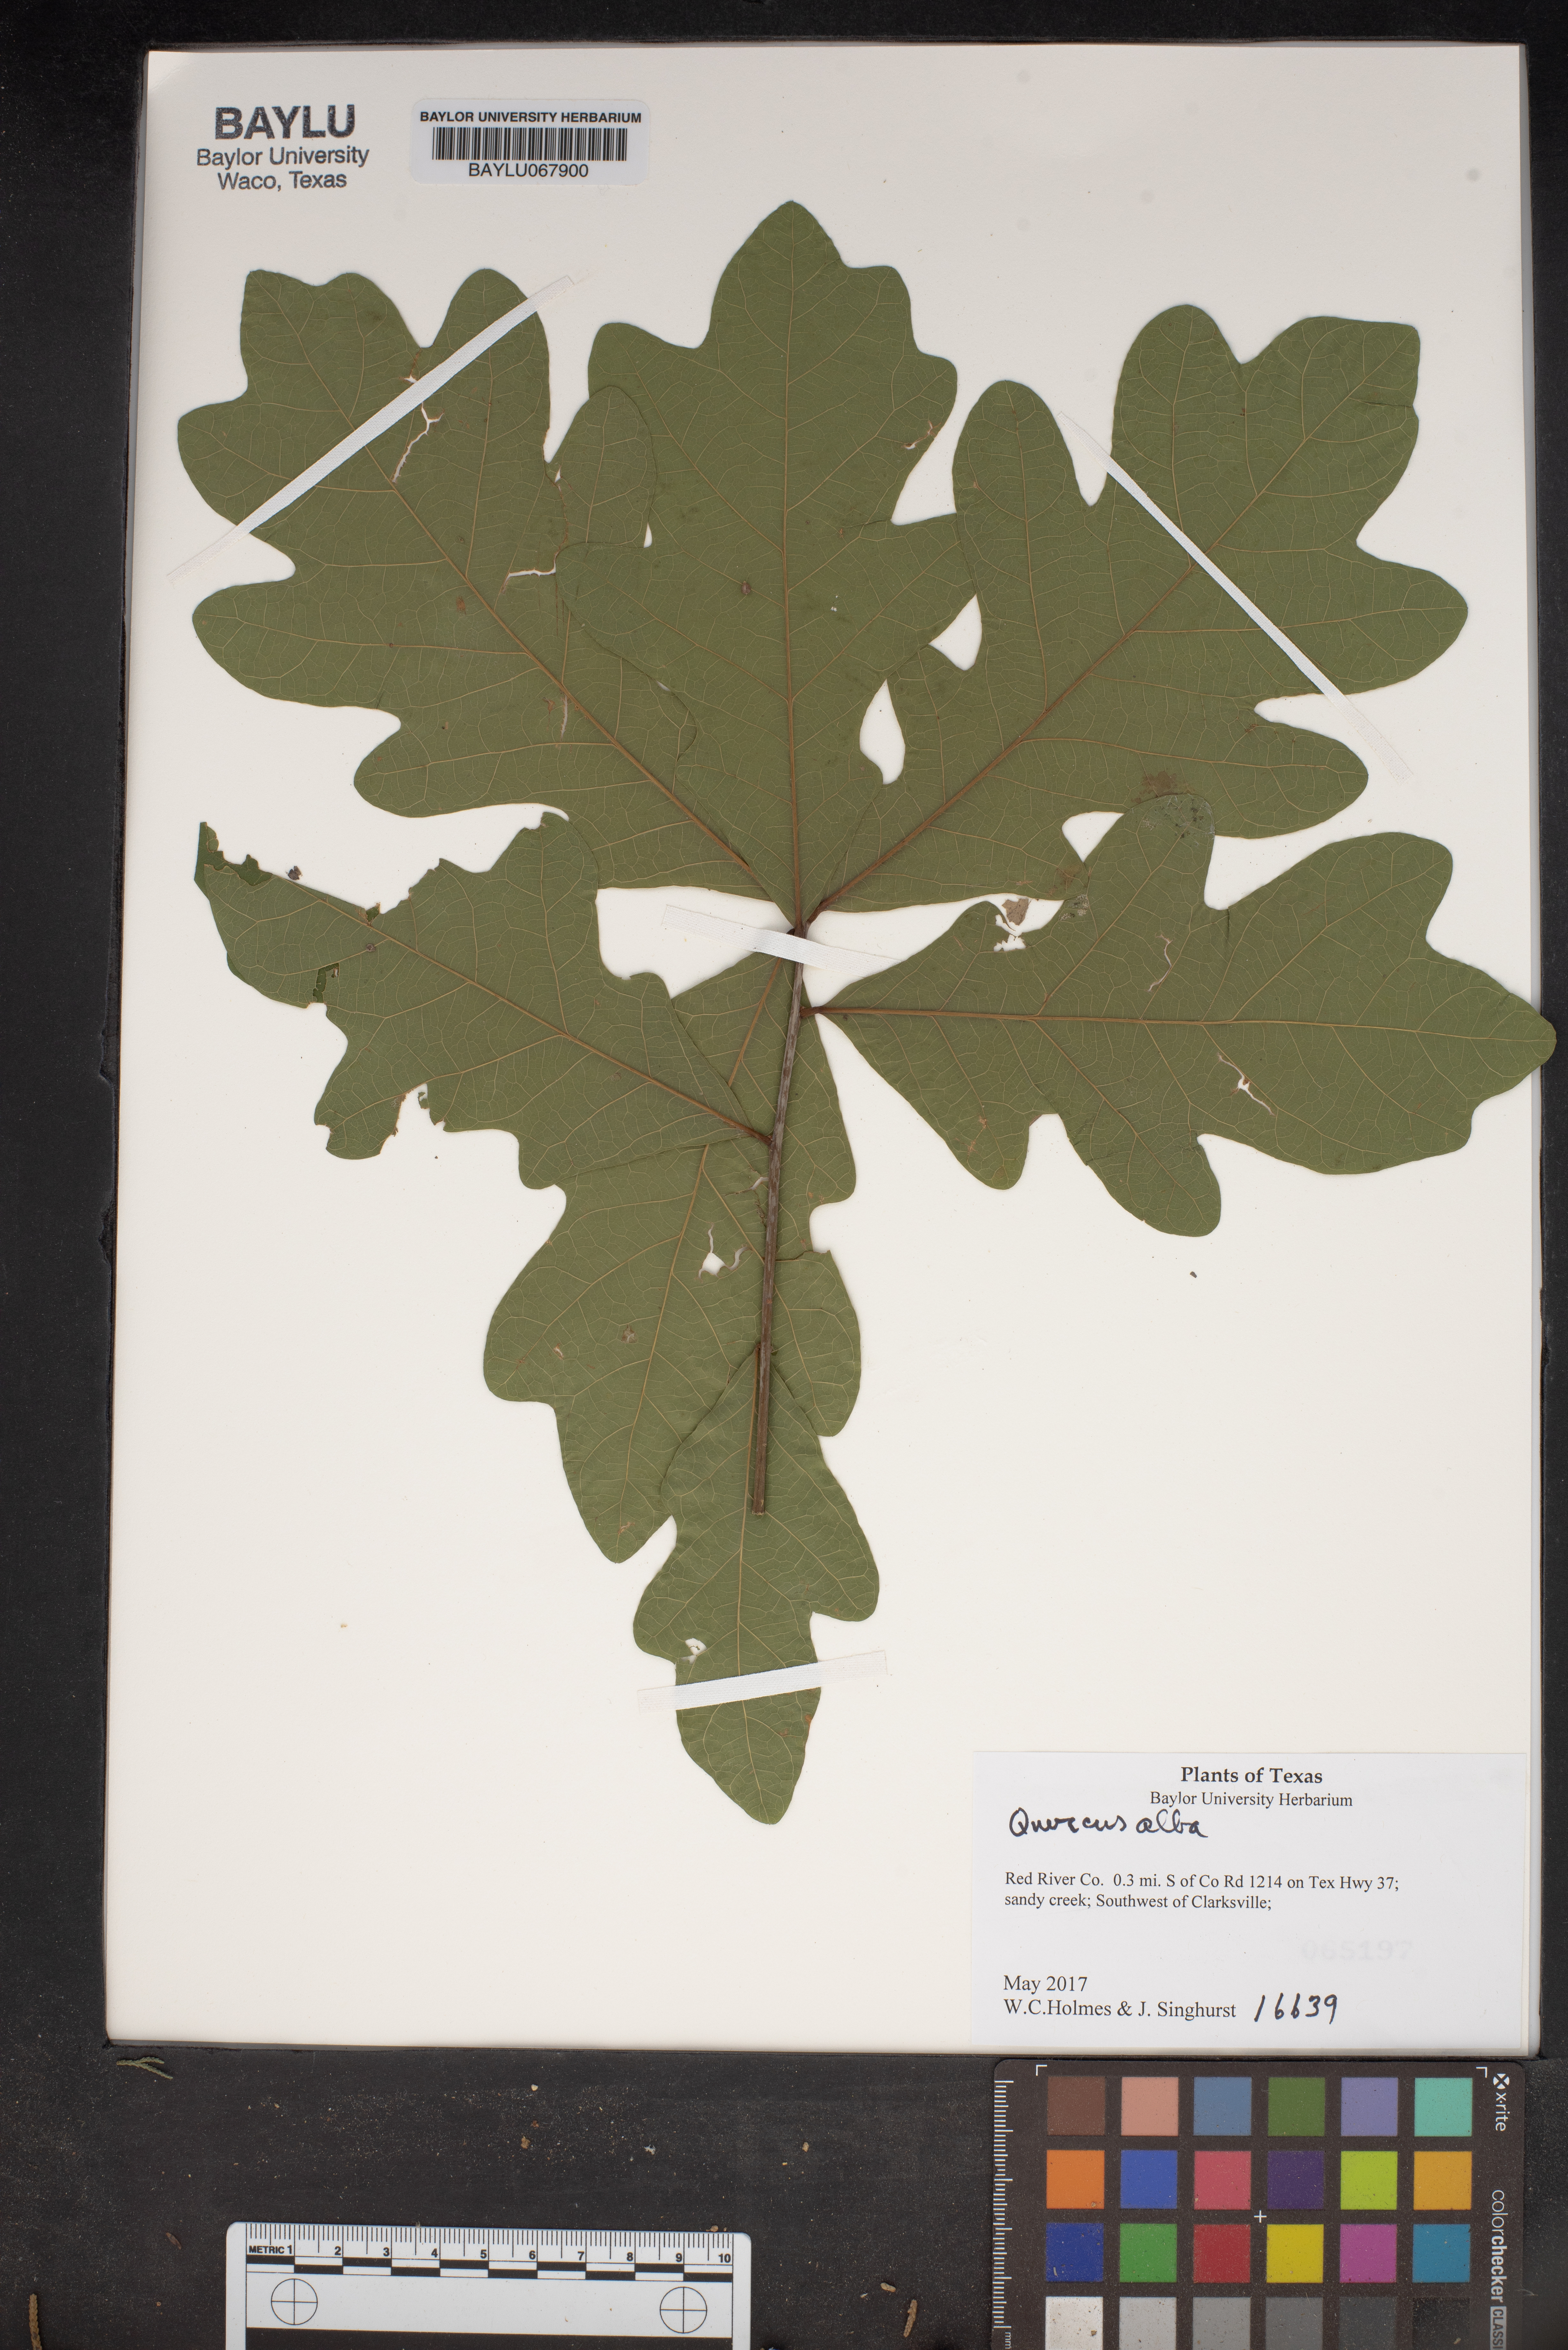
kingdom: Plantae
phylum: Tracheophyta
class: Magnoliopsida
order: Fagales
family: Fagaceae
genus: Quercus
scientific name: Quercus alba
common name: White oak
